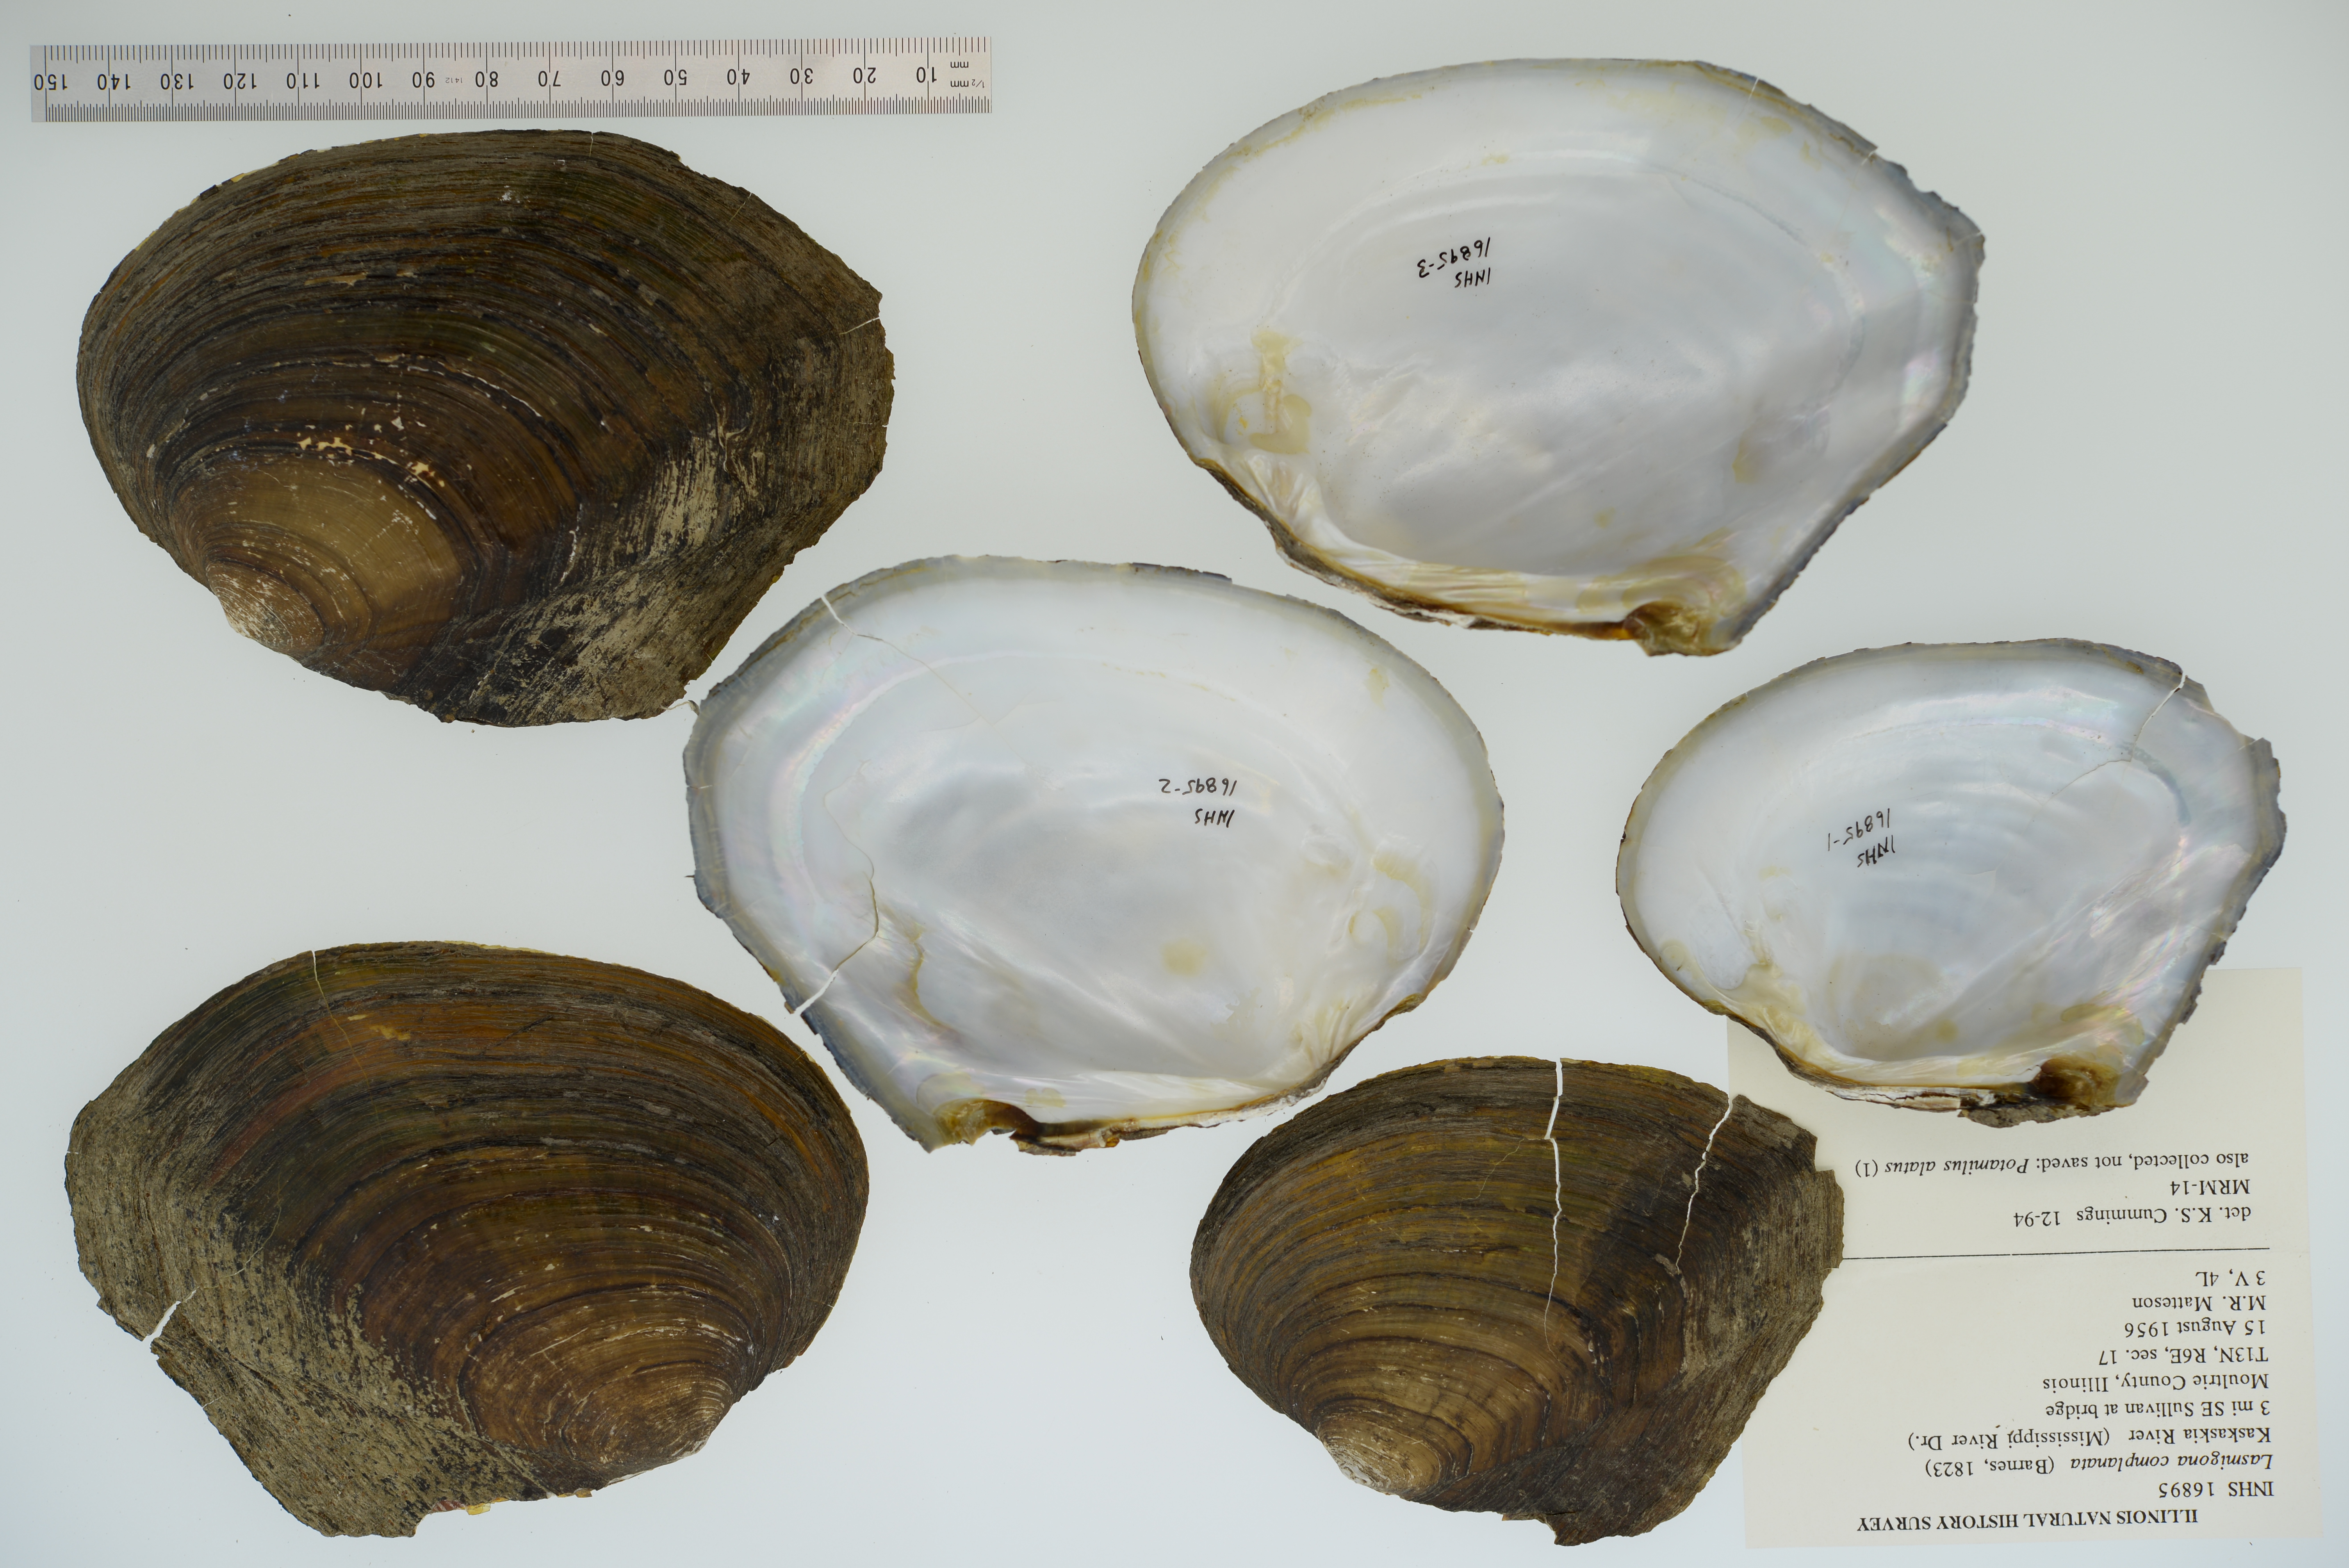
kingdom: Animalia
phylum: Mollusca
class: Bivalvia
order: Unionida
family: Unionidae
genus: Lasmigona
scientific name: Lasmigona complanata
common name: White heelsplitter
